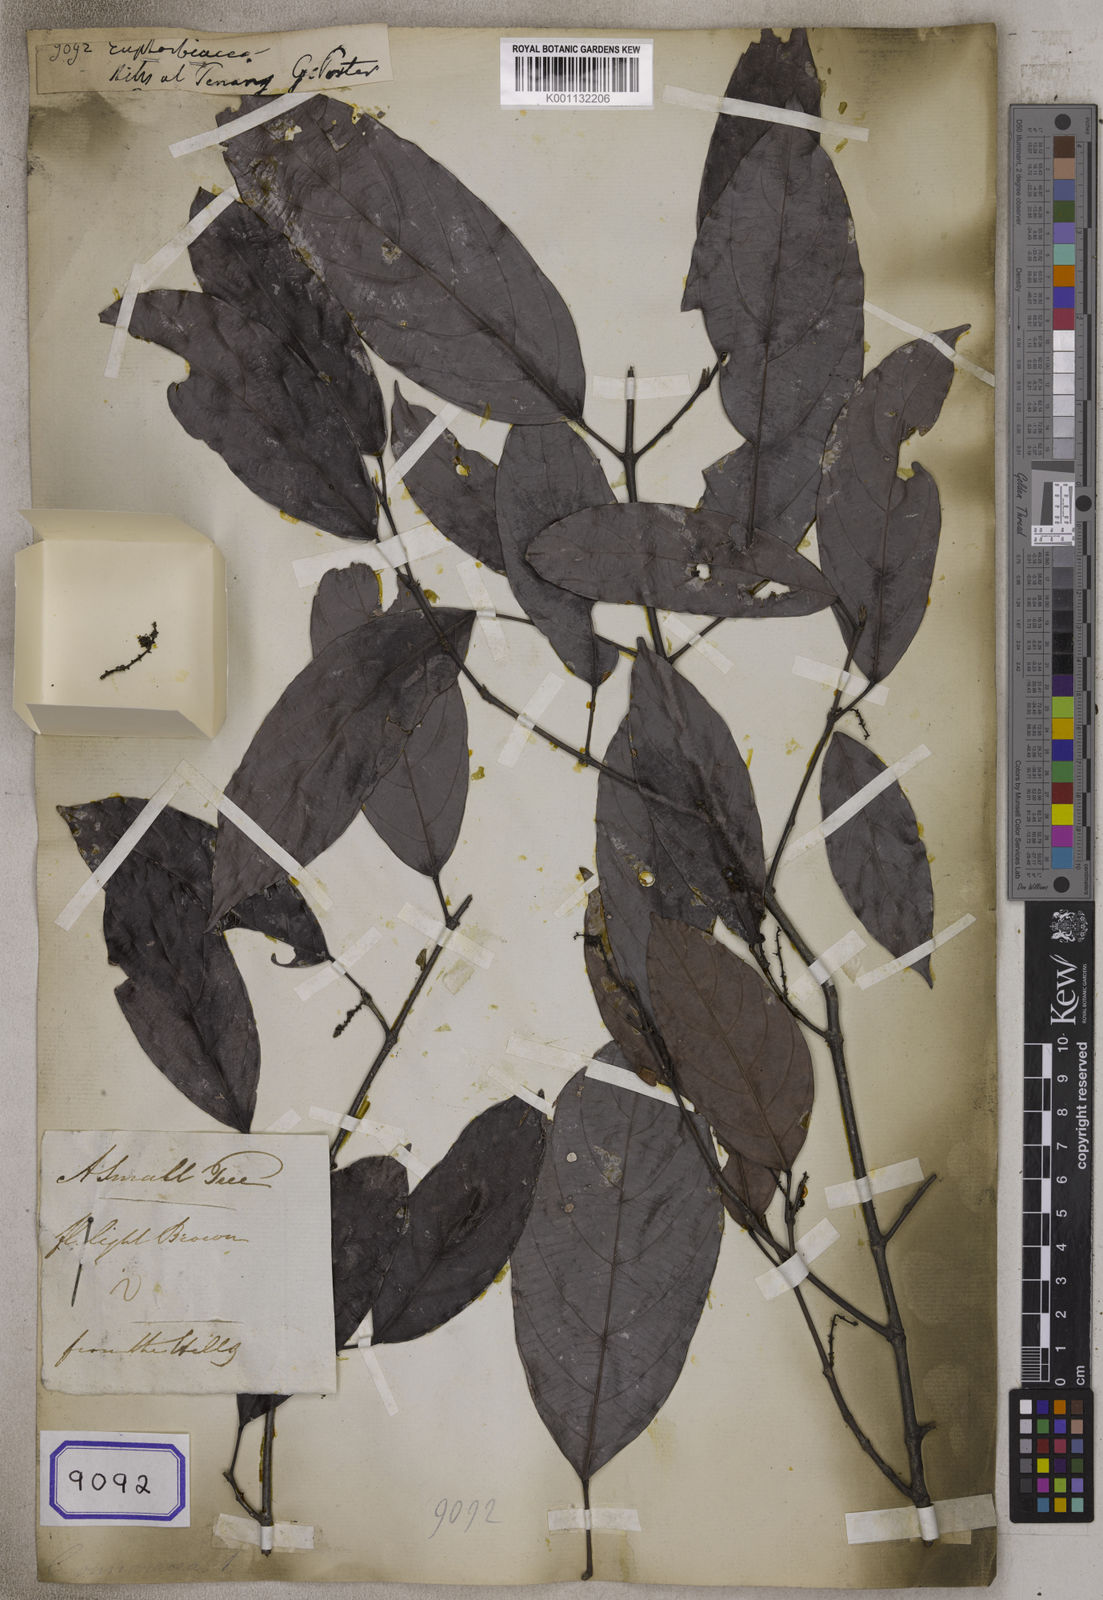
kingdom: Plantae
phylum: Tracheophyta
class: Magnoliopsida
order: Malpighiales
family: Euphorbiaceae
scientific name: Euphorbiaceae
